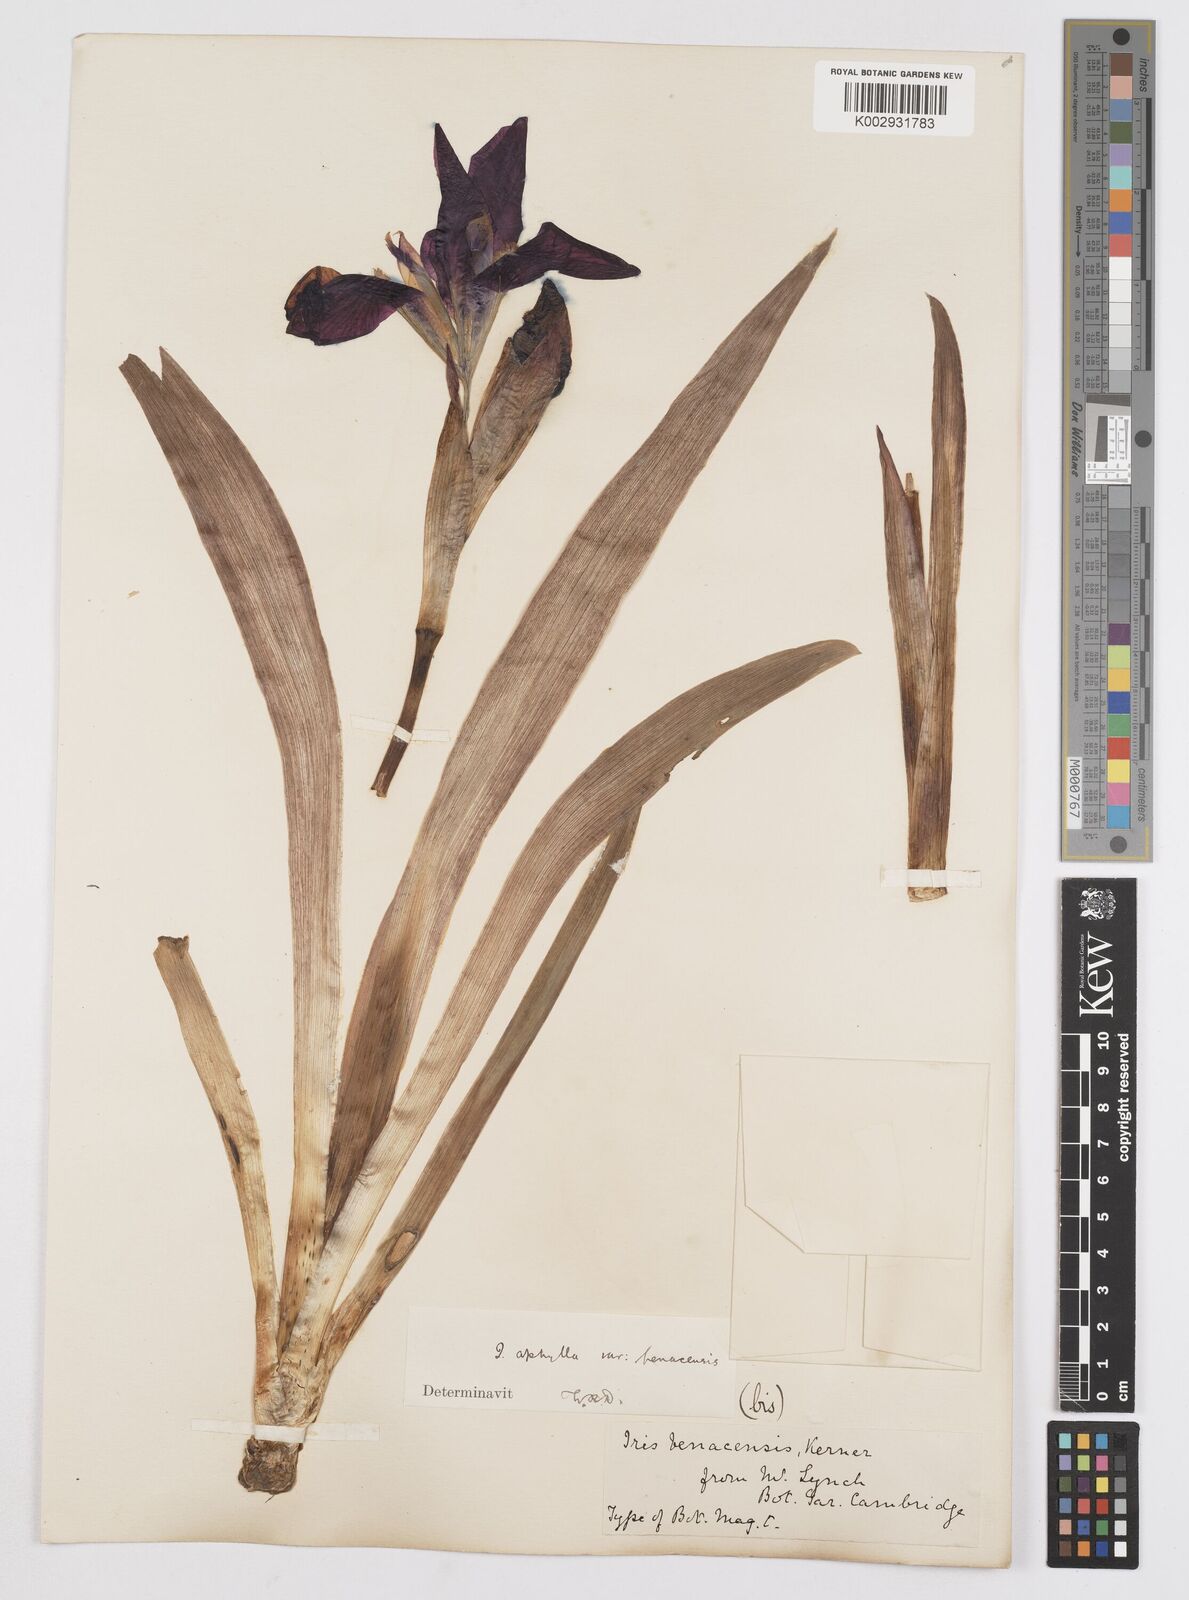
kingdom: Plantae
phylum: Tracheophyta
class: Liliopsida
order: Asparagales
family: Iridaceae
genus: Iris
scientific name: Iris aphylla
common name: Stool iris
